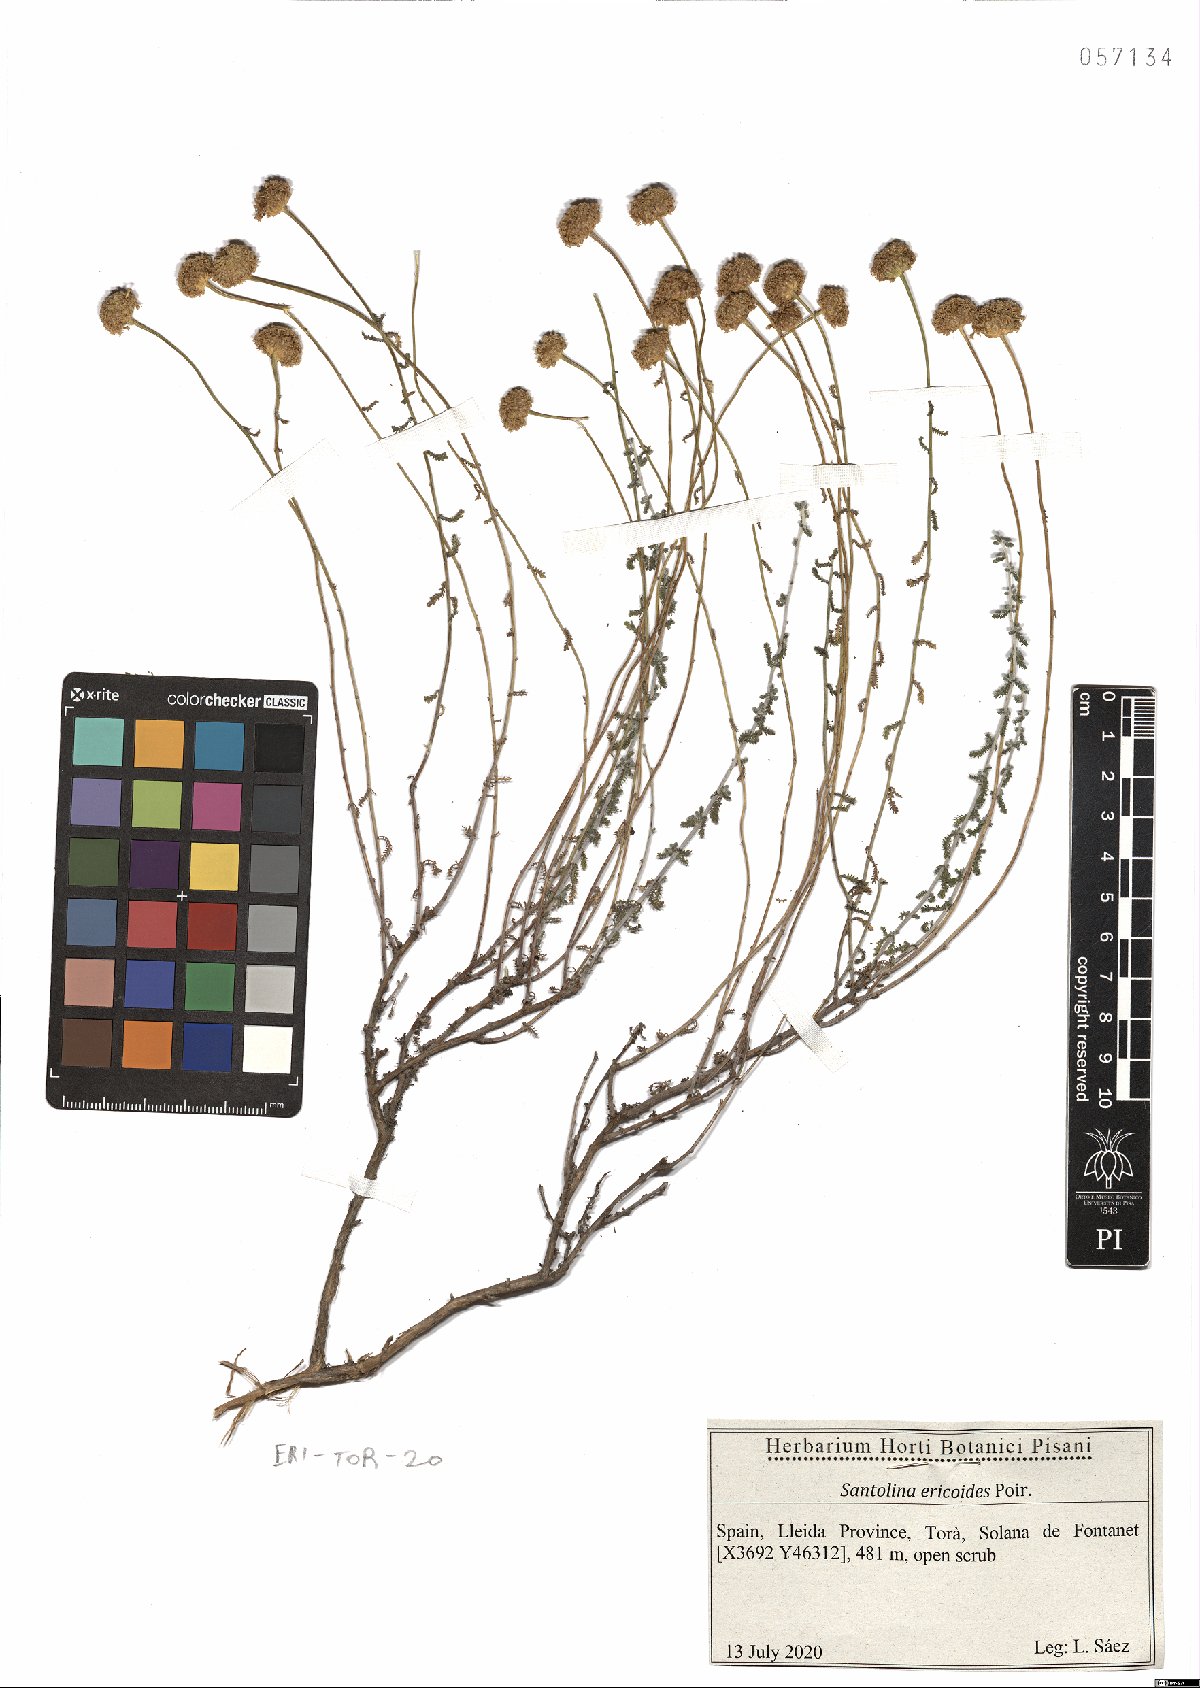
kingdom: Plantae
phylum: Tracheophyta
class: Magnoliopsida
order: Asterales
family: Asteraceae
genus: Santolina
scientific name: Santolina ericoides
